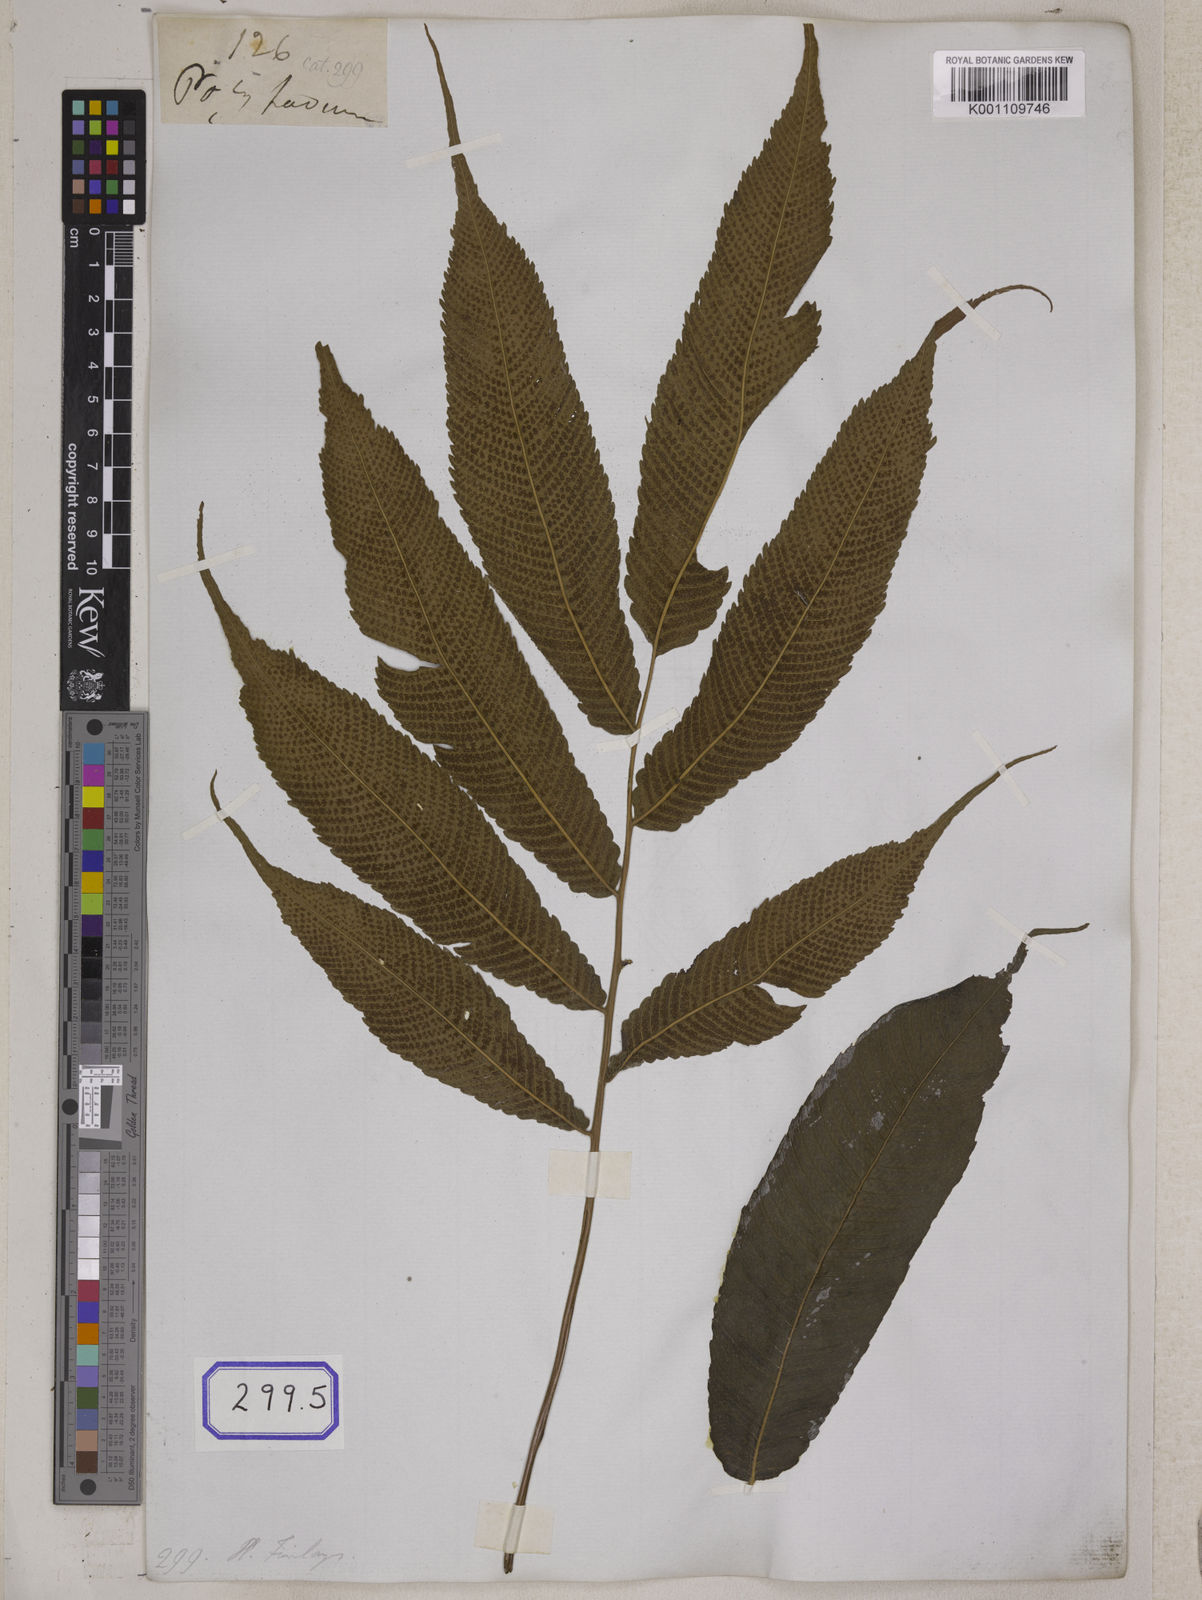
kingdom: Plantae
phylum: Tracheophyta
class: Polypodiopsida
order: Polypodiales
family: Thelypteridaceae
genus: Menisciopsis
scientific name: Menisciopsis penangiana
